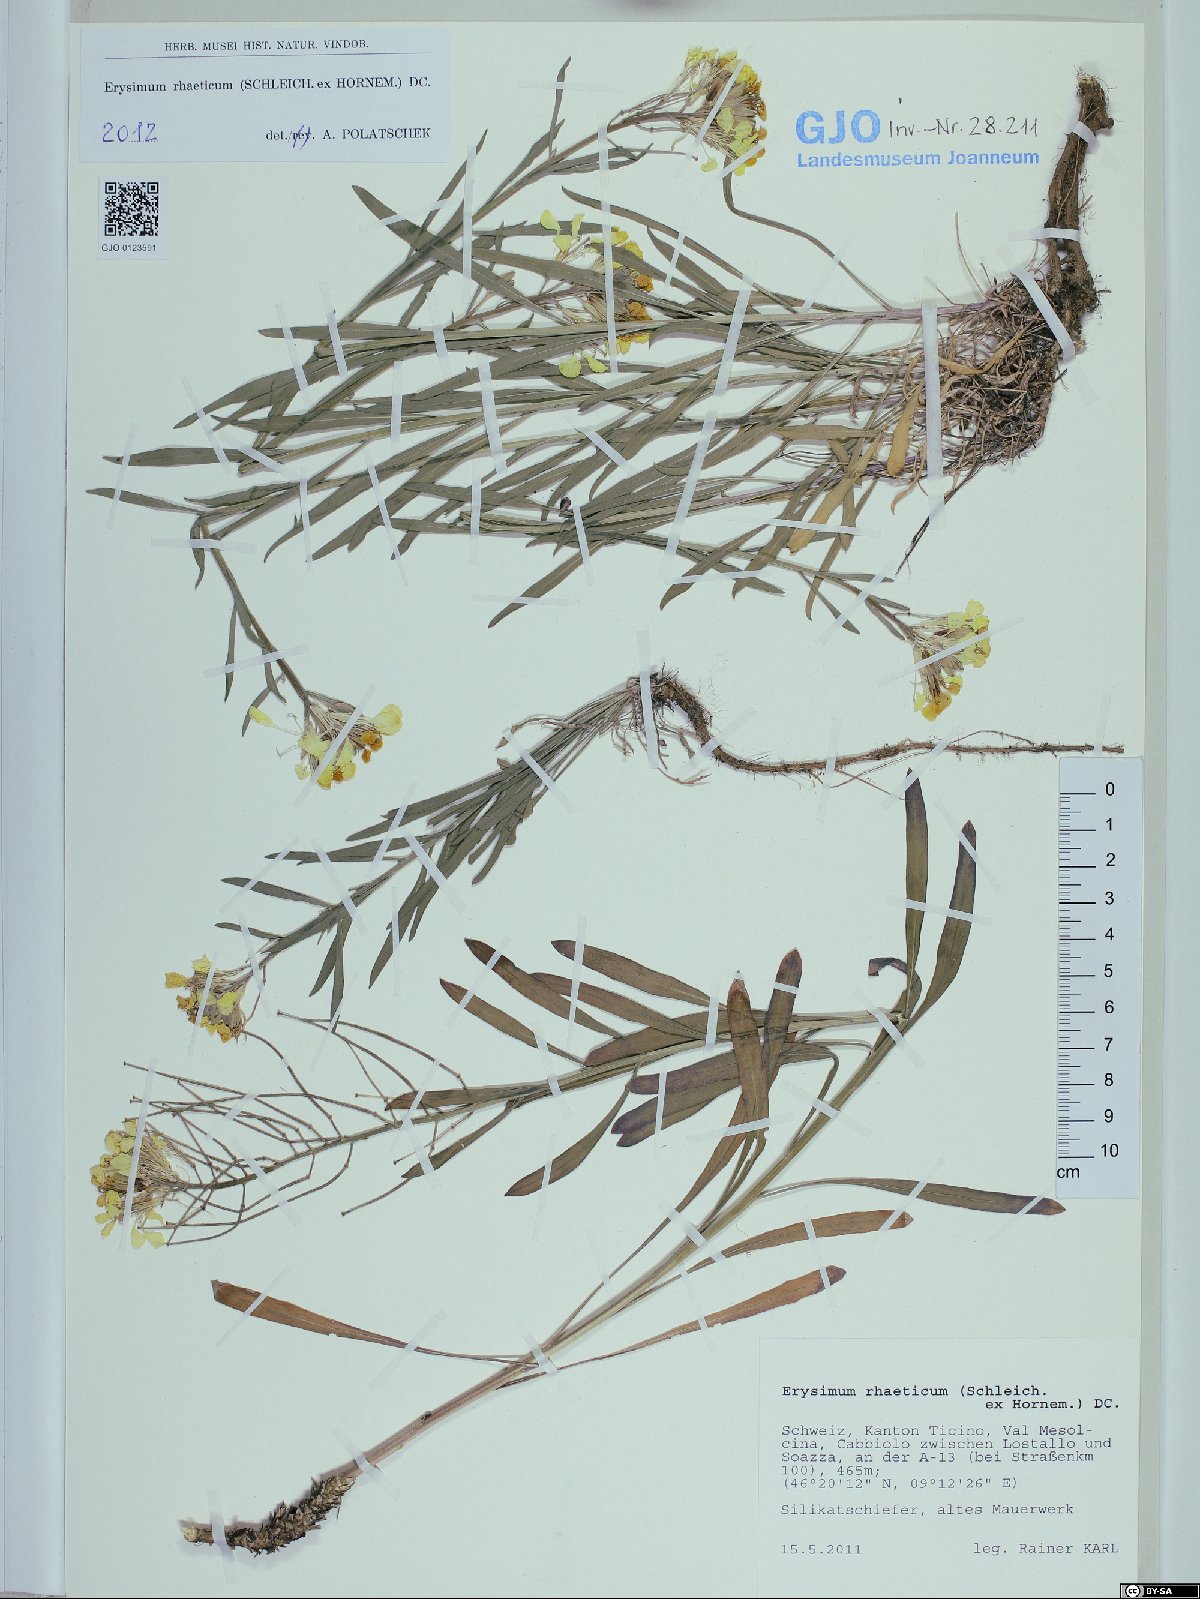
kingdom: Plantae
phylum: Tracheophyta
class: Magnoliopsida
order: Brassicales
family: Brassicaceae
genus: Erysimum
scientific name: Erysimum rhaeticum
